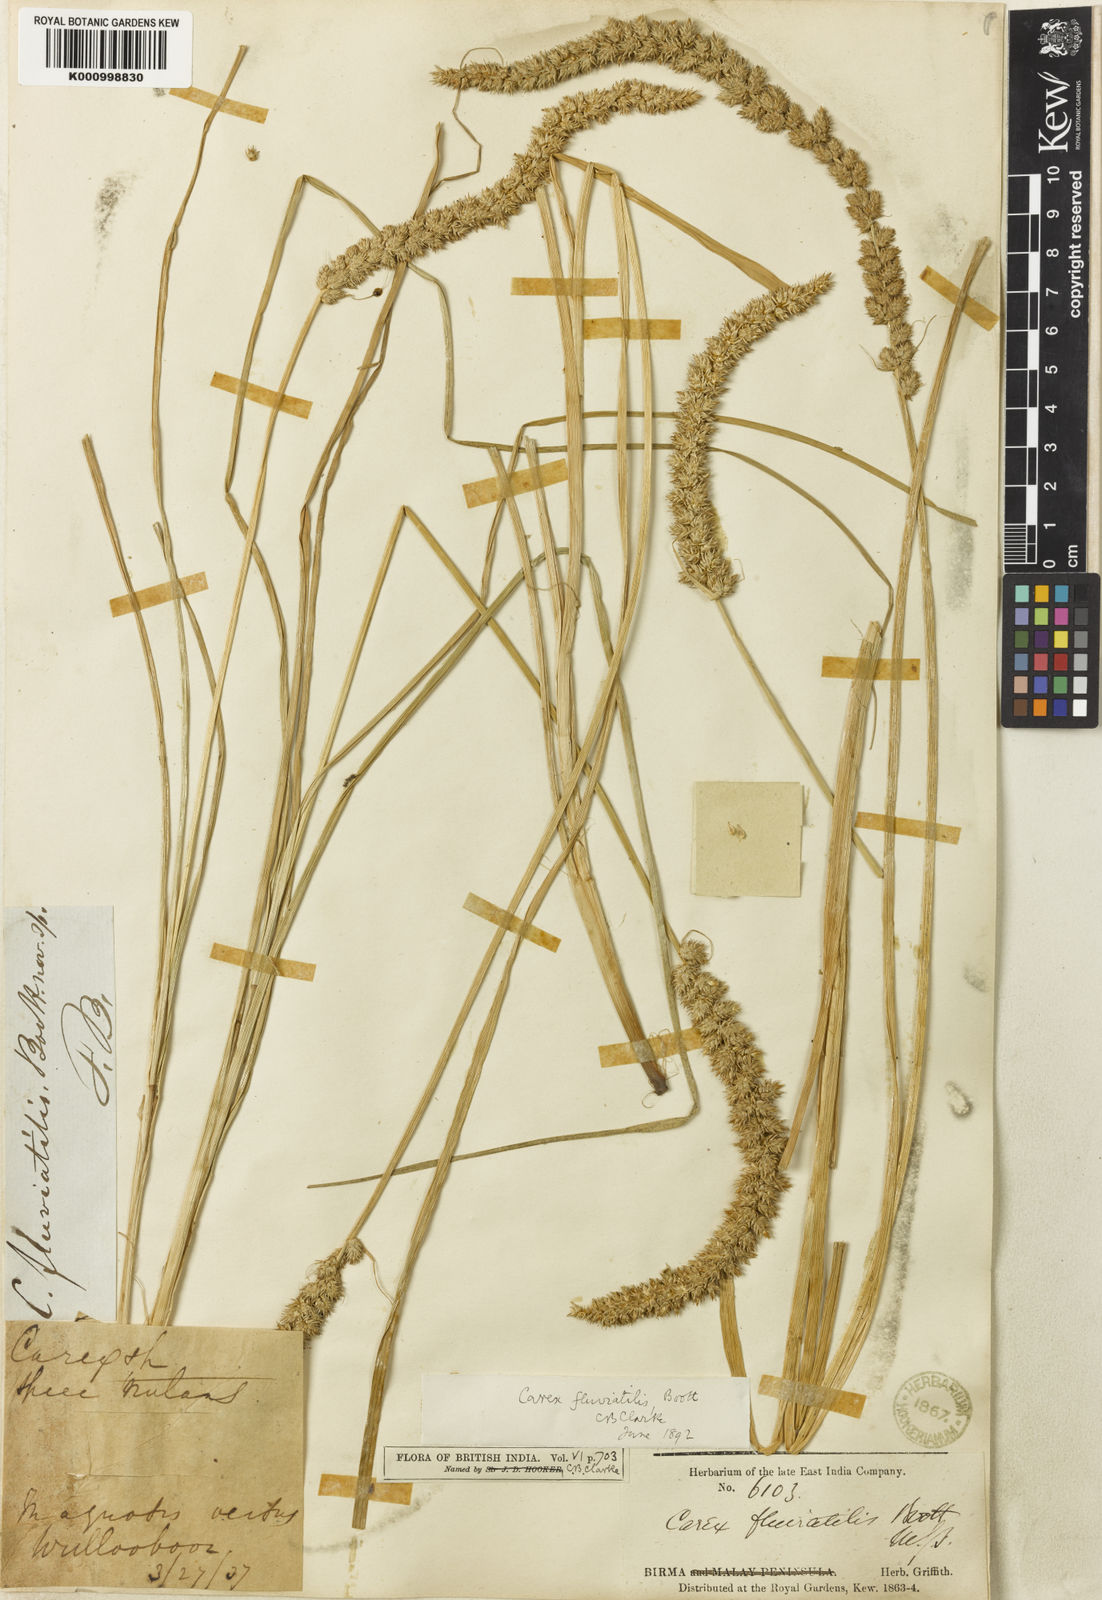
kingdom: Plantae
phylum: Tracheophyta
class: Liliopsida
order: Poales
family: Cyperaceae
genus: Carex
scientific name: Carex fluviatilis
